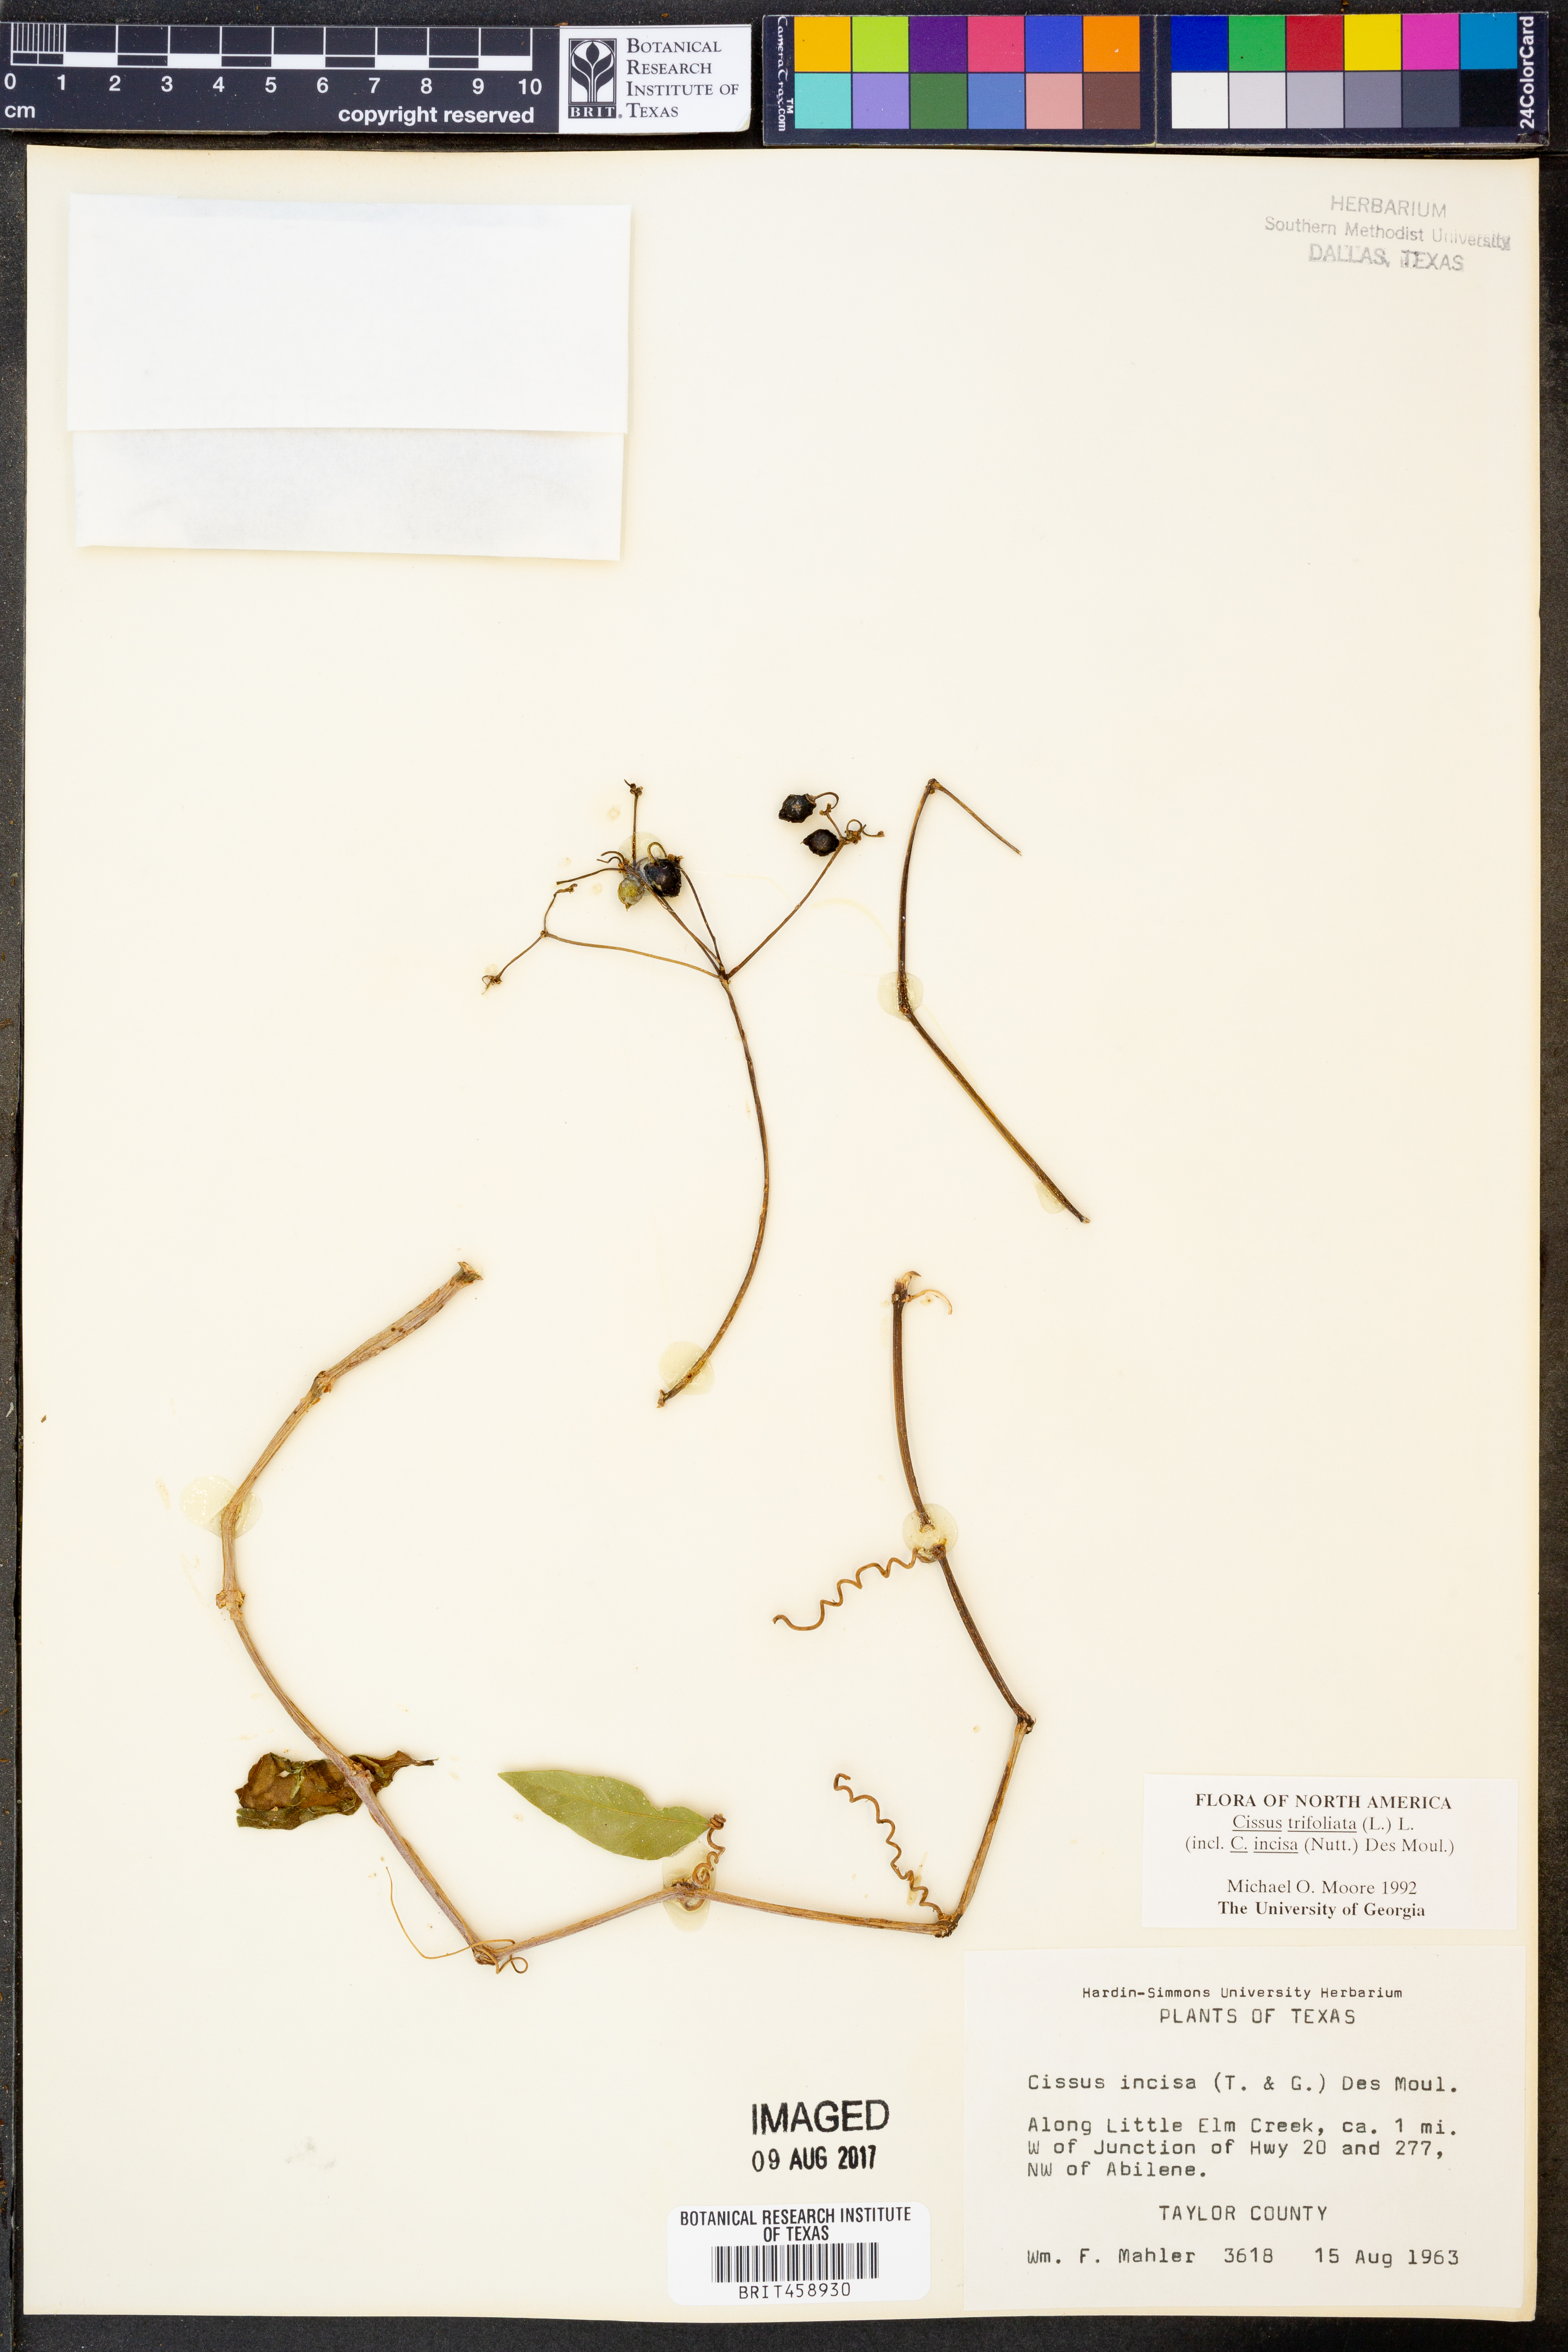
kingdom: Plantae
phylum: Tracheophyta
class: Magnoliopsida
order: Vitales
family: Vitaceae
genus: Cissus
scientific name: Cissus trifoliata
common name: Vine-sorrel
